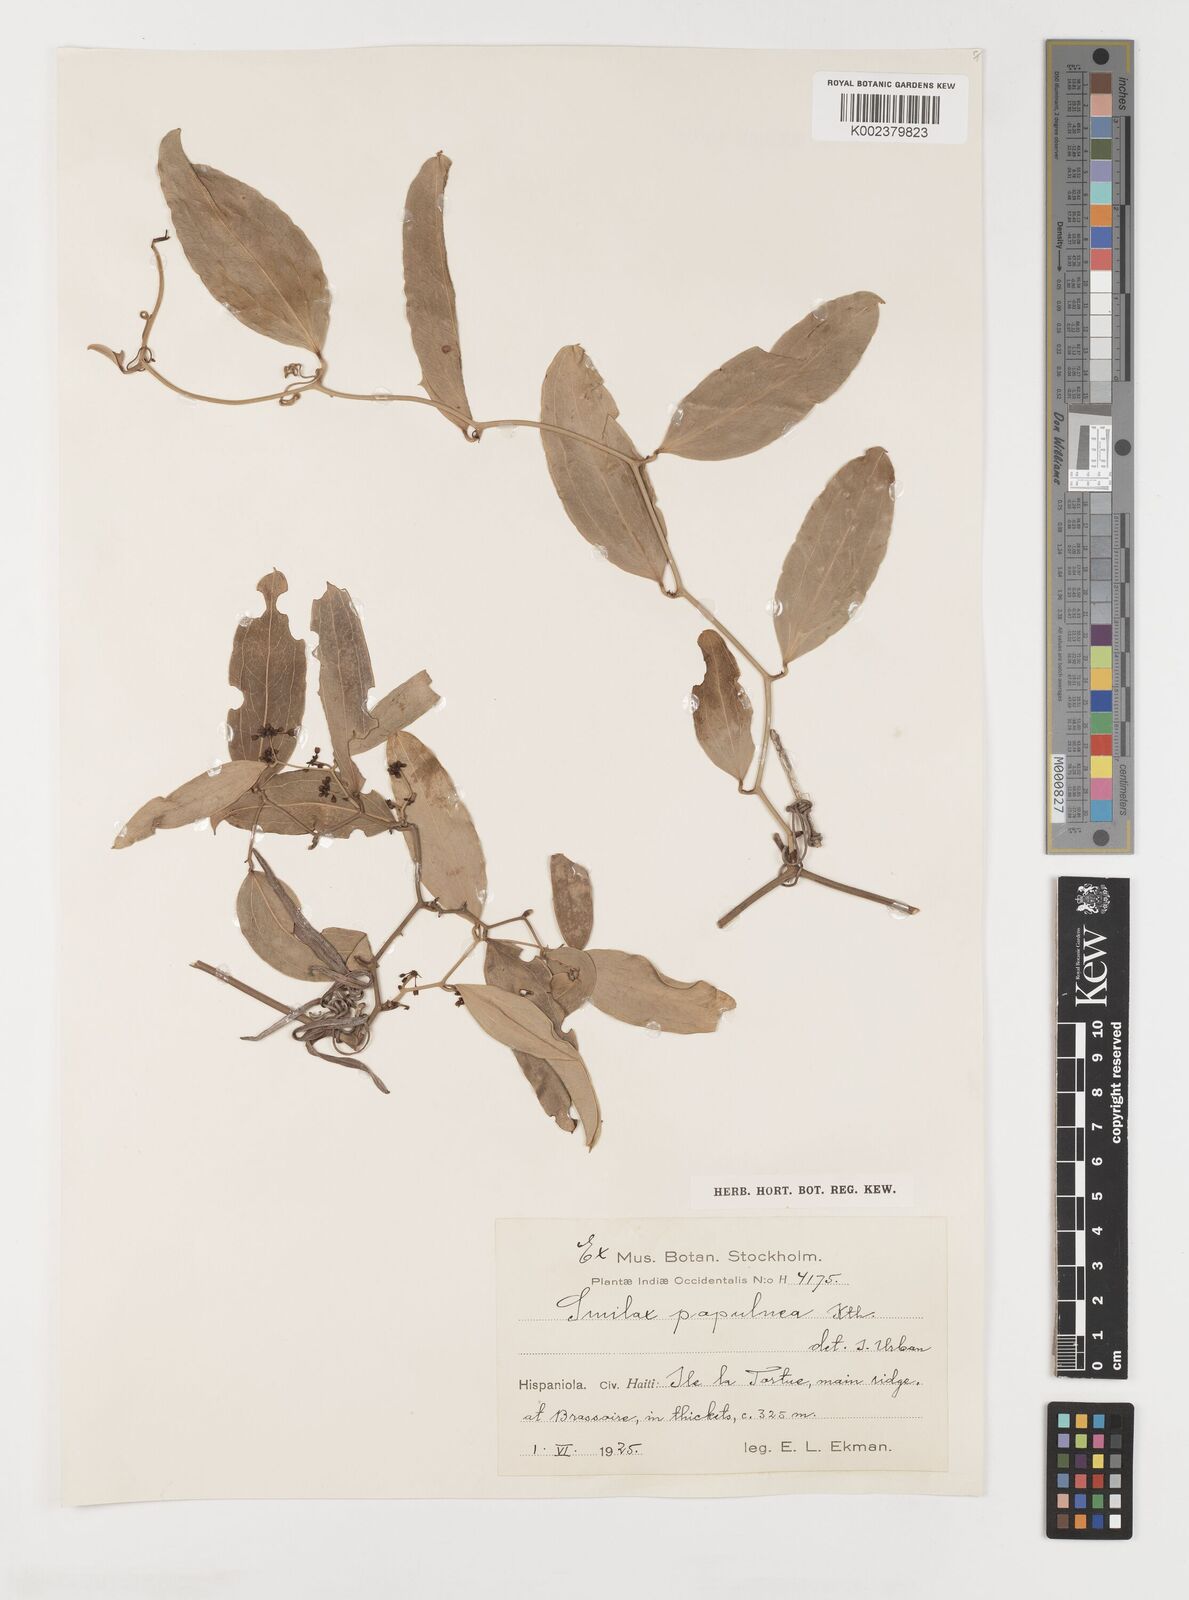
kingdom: Plantae
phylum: Tracheophyta
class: Liliopsida
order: Liliales
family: Smilacaceae
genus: Smilax
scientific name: Smilax populnea
